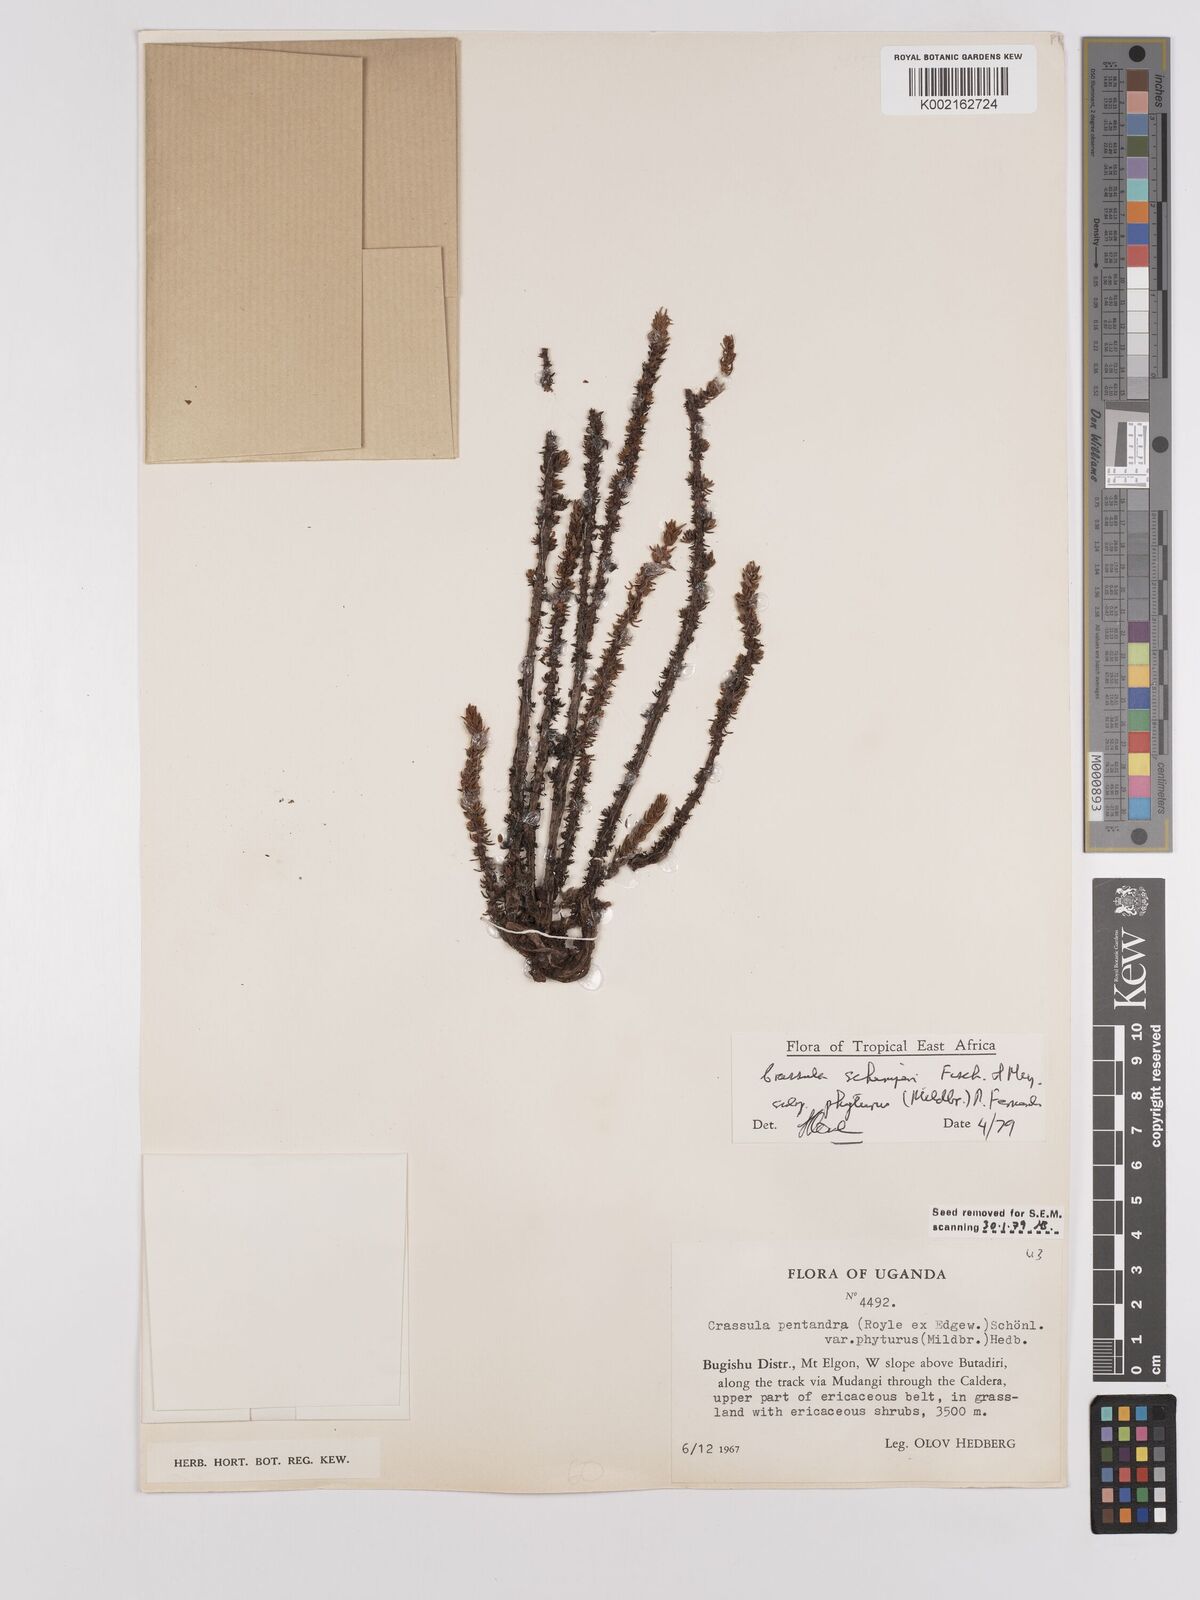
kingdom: Plantae
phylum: Tracheophyta
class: Magnoliopsida
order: Saxifragales
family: Crassulaceae
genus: Crassula
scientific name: Crassula schimperi
